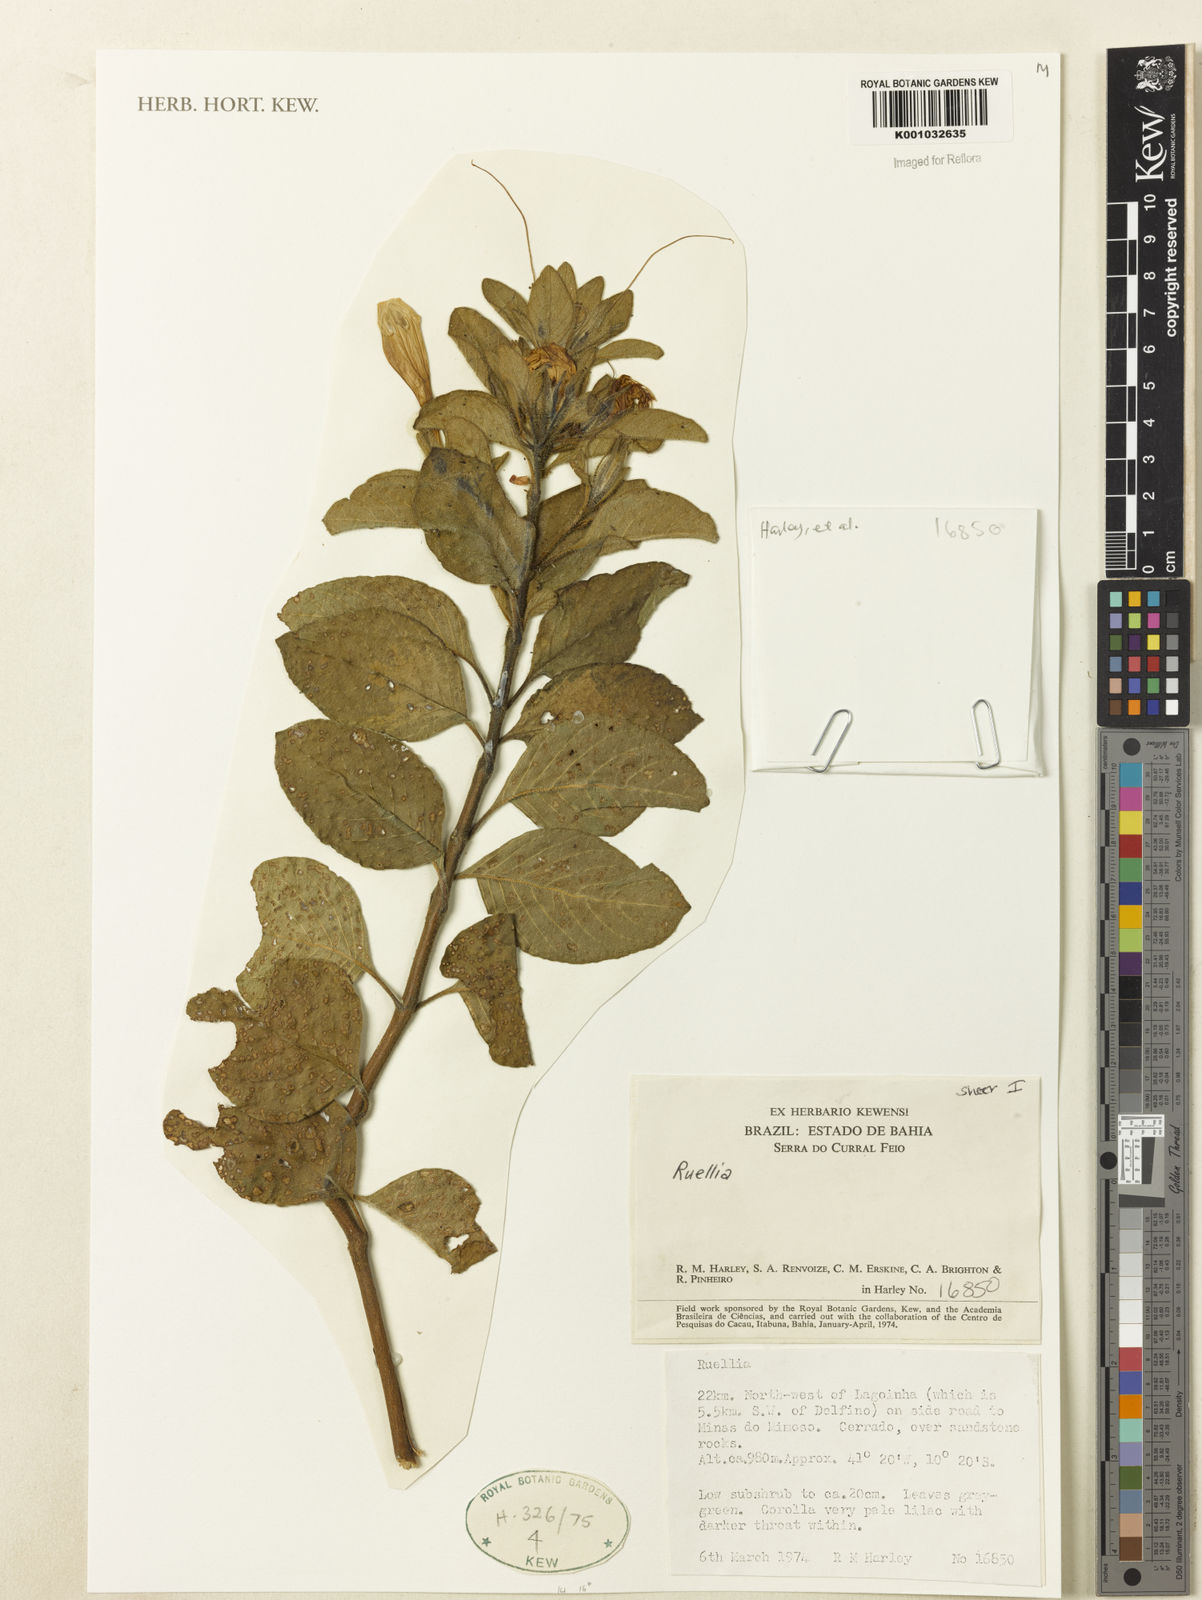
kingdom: Plantae
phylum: Tracheophyta
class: Magnoliopsida
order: Lamiales
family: Acanthaceae
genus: Ruellia
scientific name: Ruellia
